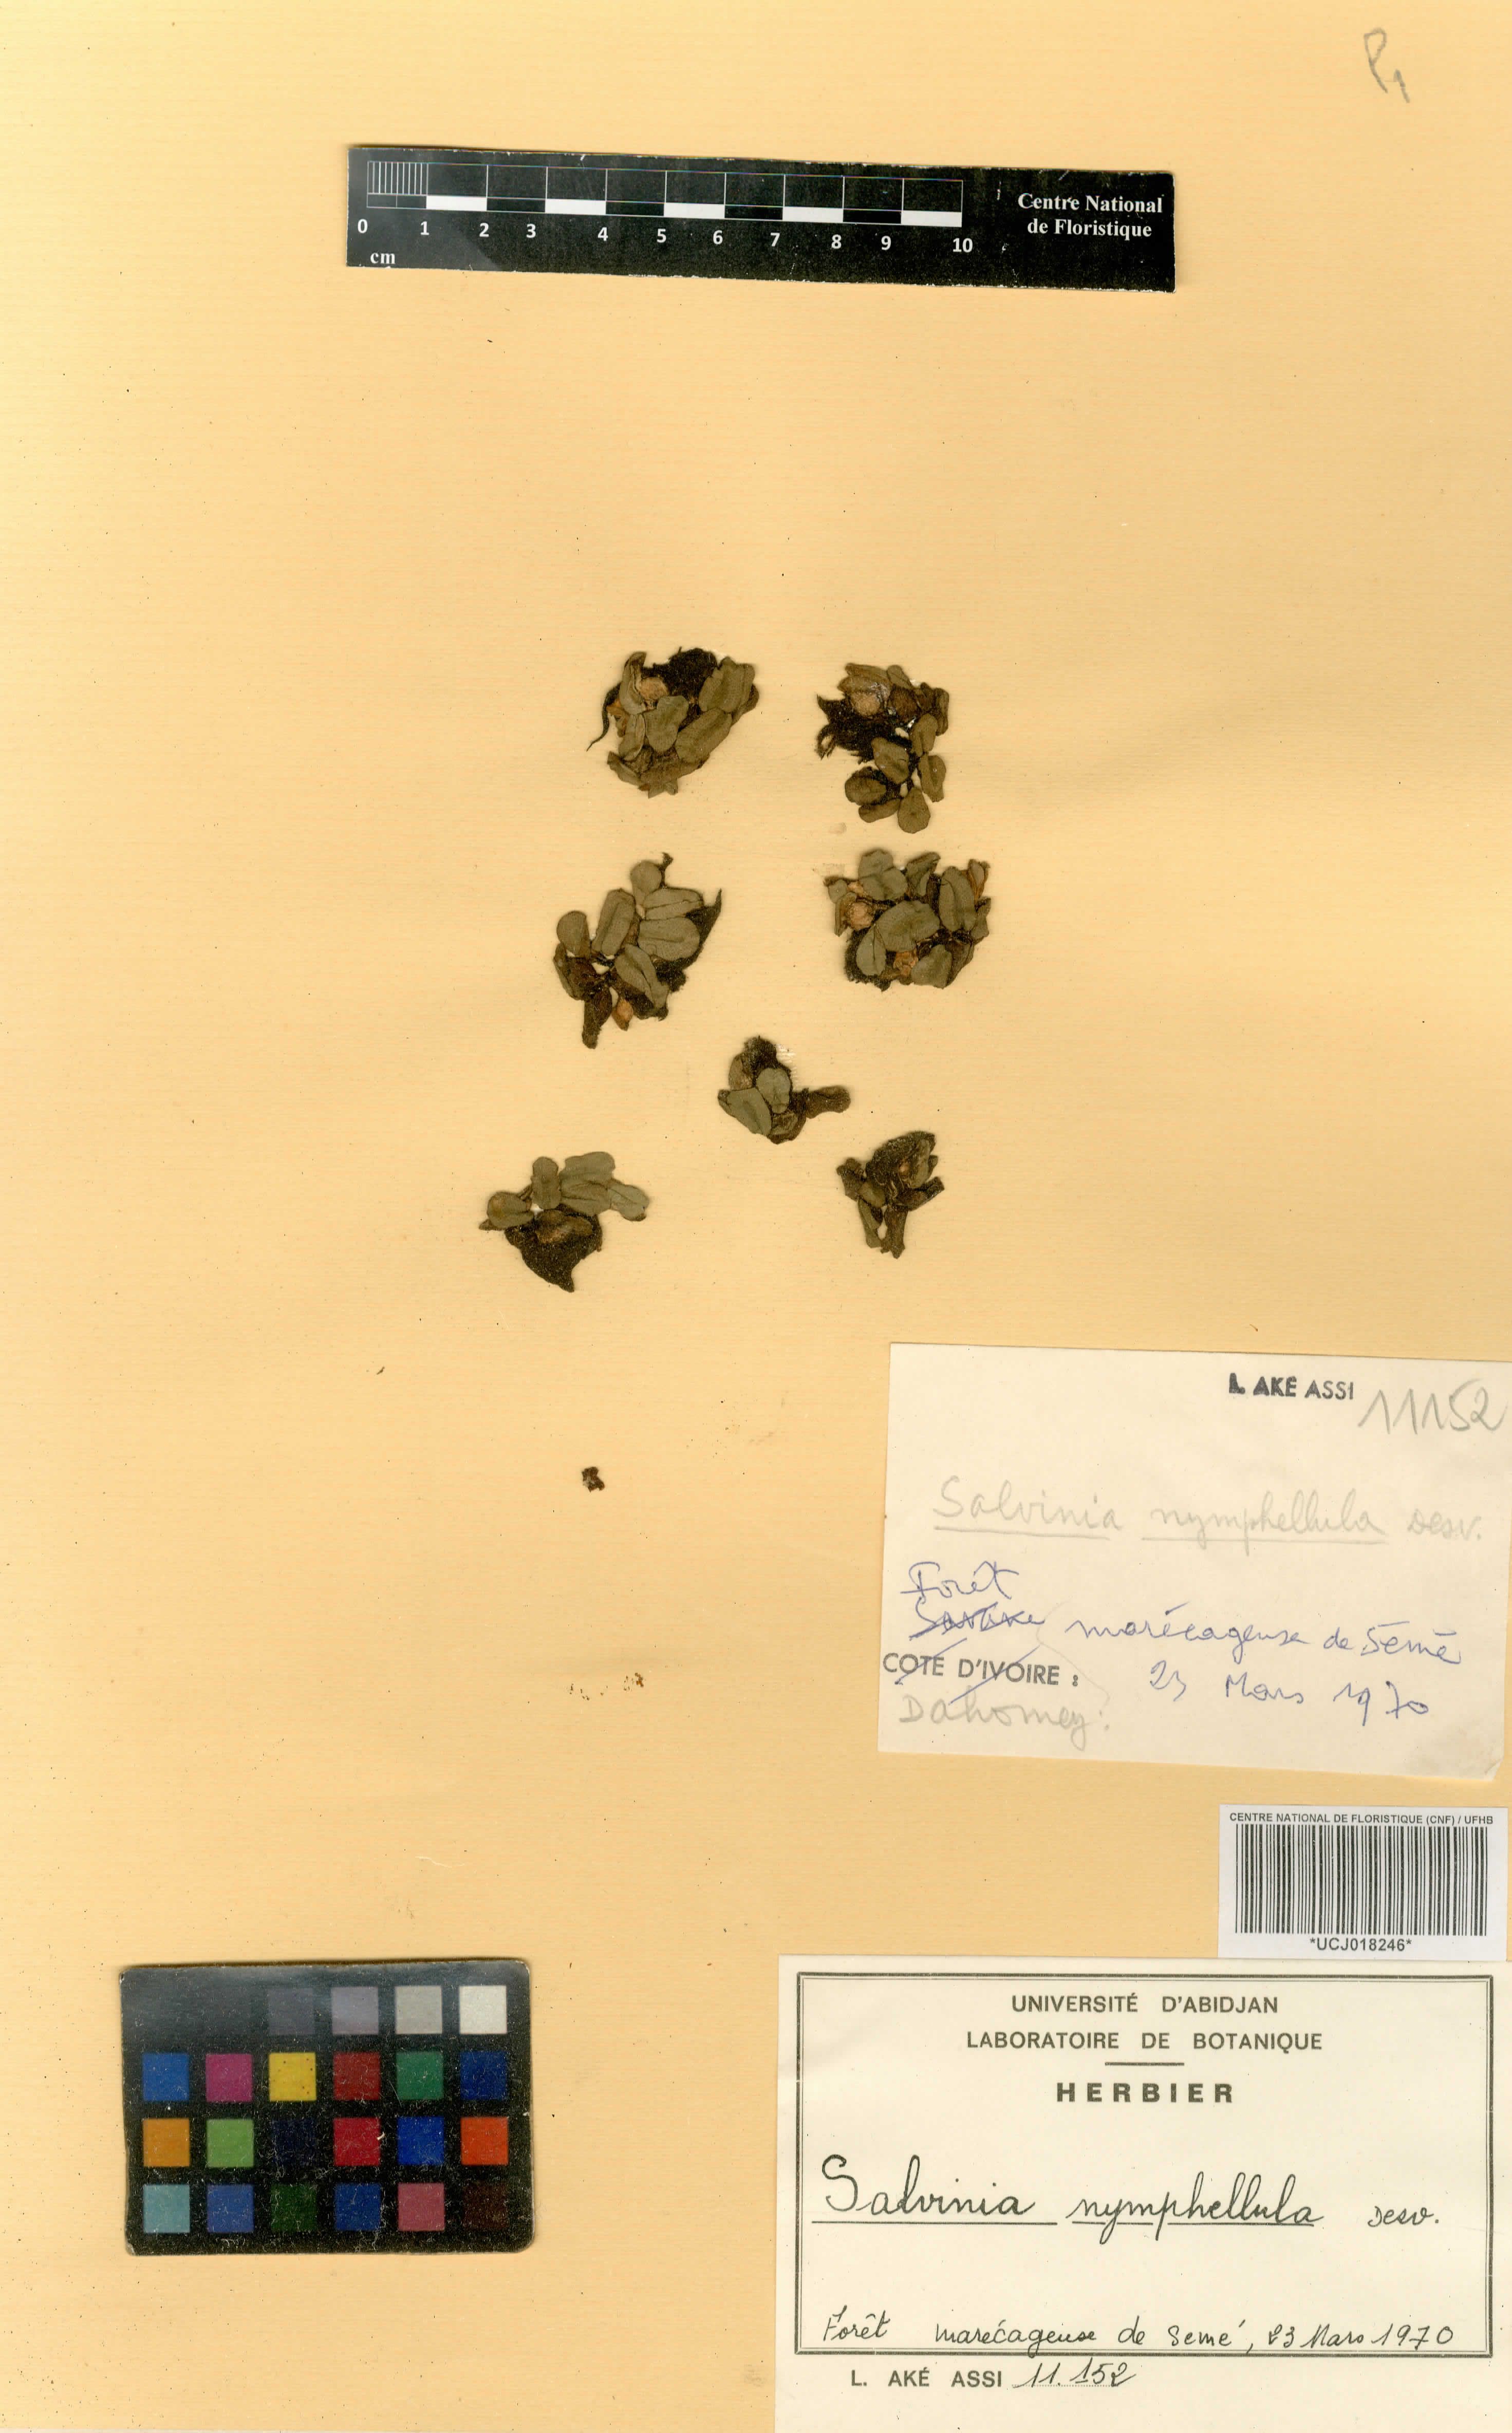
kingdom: Plantae
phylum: Tracheophyta
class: Polypodiopsida
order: Salviniales
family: Salviniaceae
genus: Salvinia
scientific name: Salvinia nymphellula
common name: Floating fern
